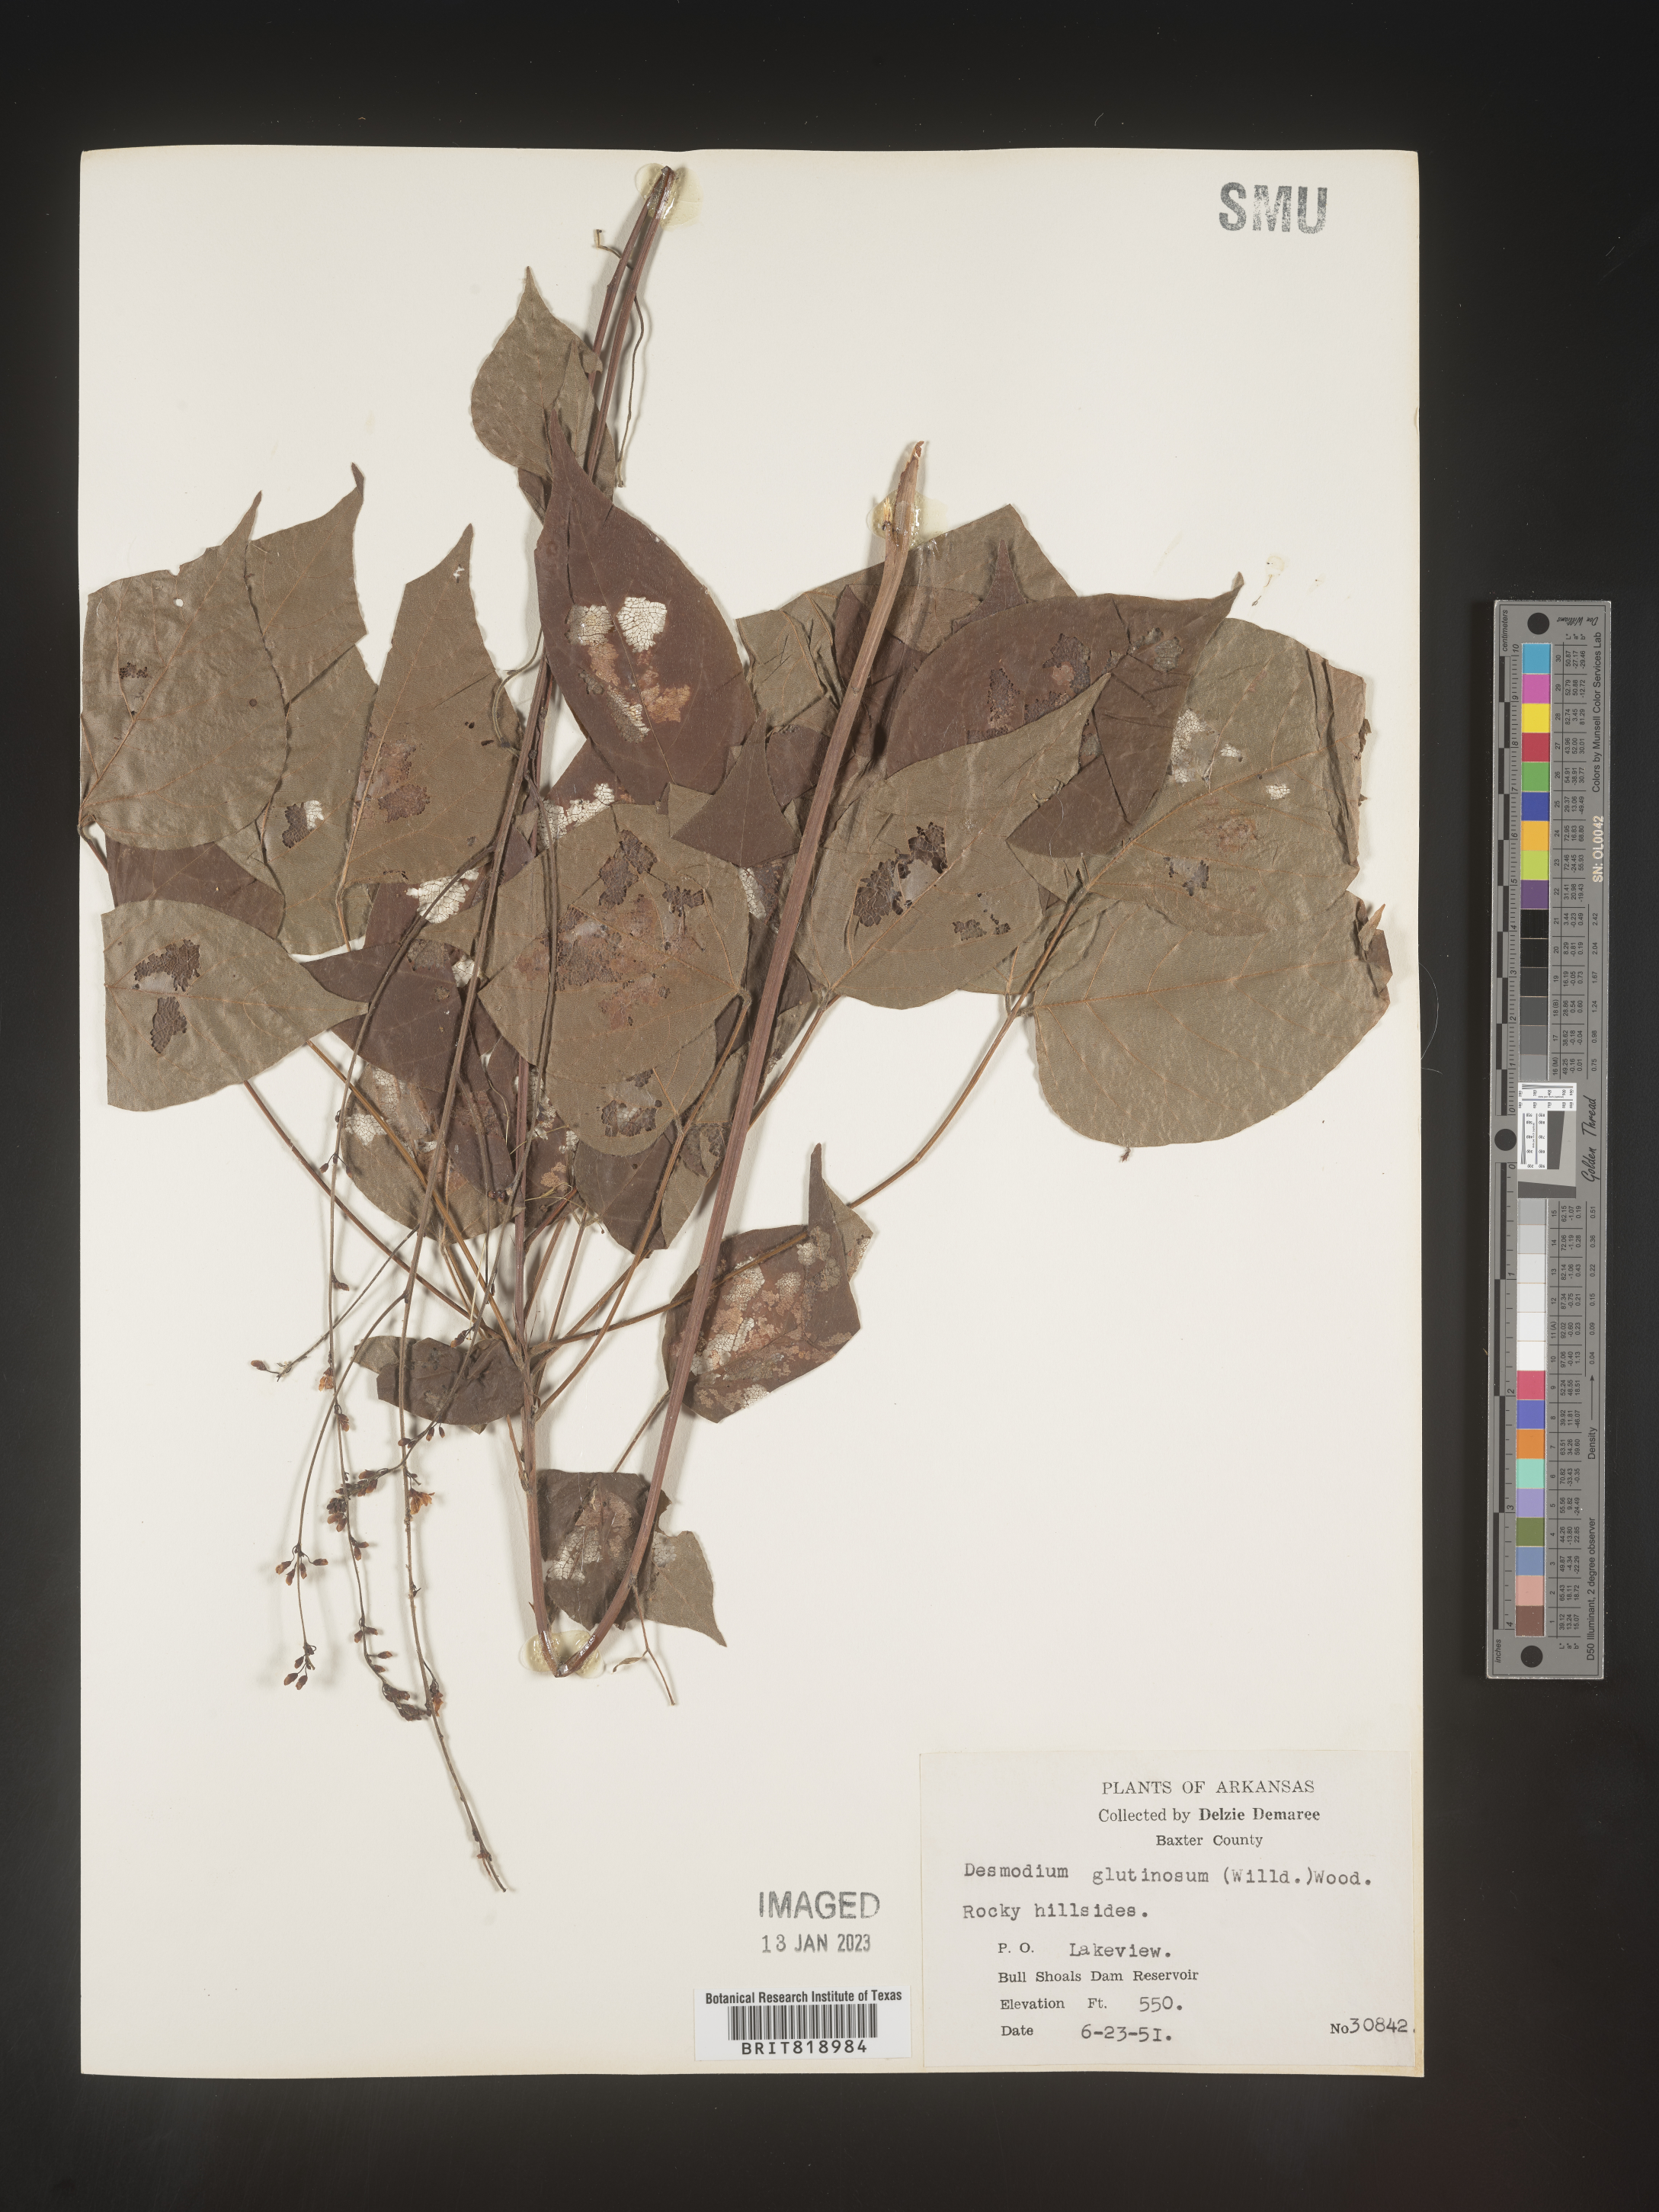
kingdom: Plantae
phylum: Tracheophyta
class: Magnoliopsida
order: Fabales
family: Fabaceae
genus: Hylodesmum
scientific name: Hylodesmum glutinosum
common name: Clustered-leaved tick-trefoil
